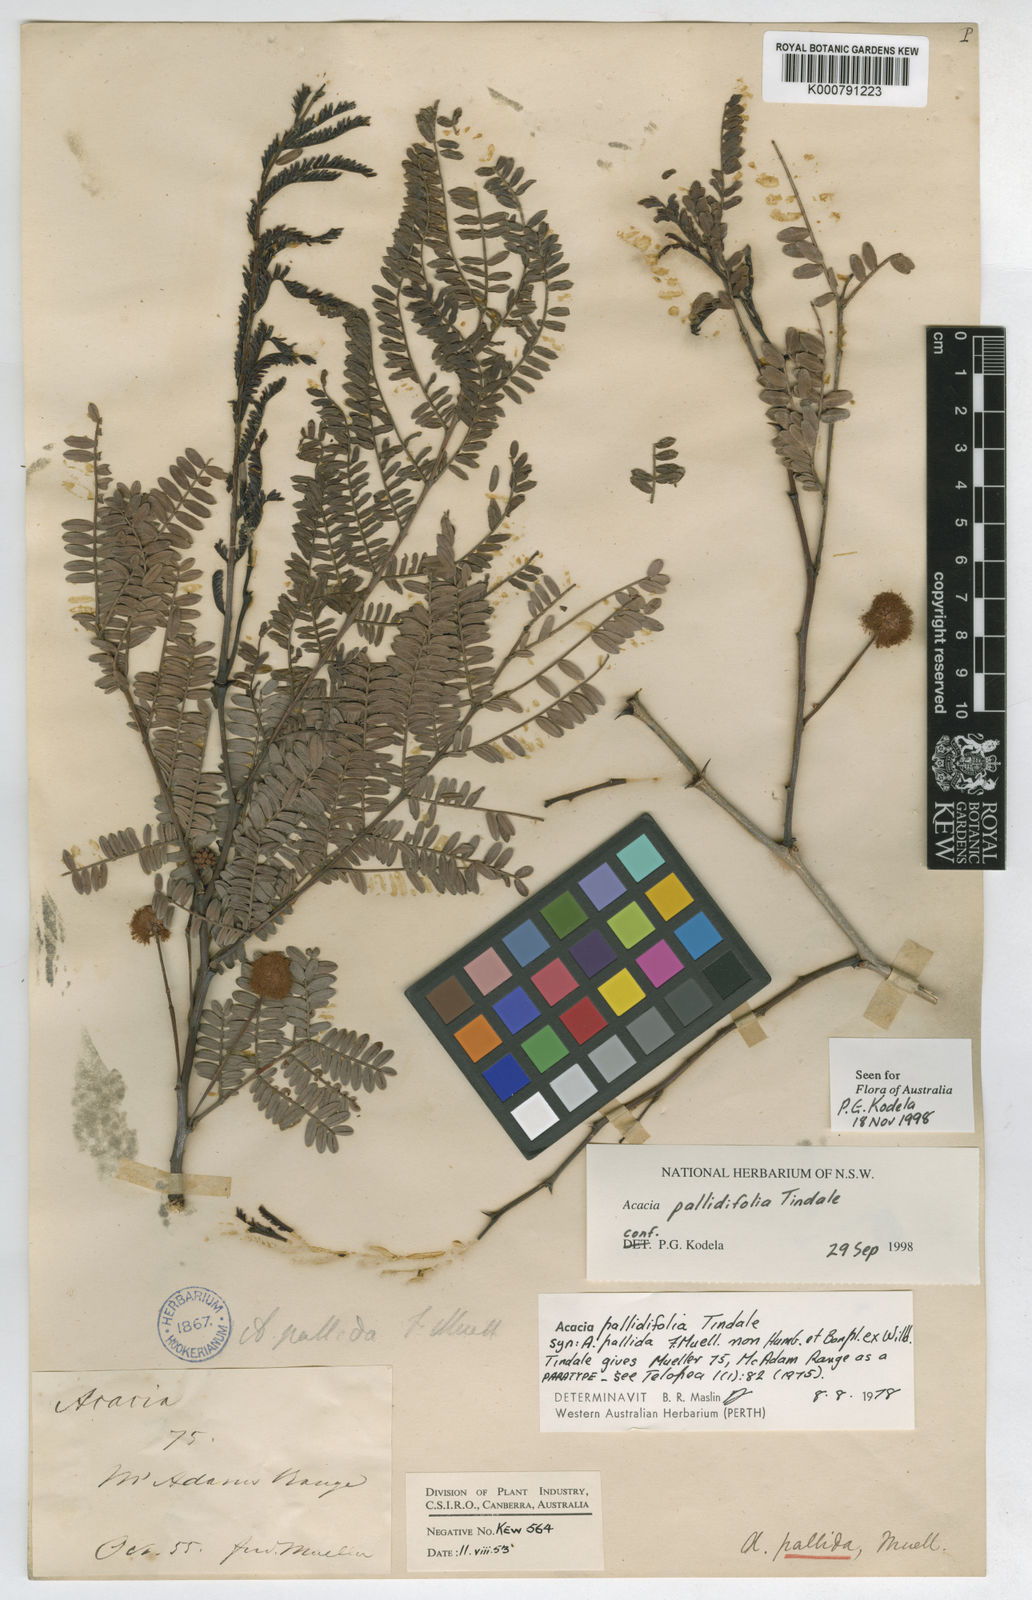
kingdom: Plantae
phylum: Tracheophyta
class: Magnoliopsida
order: Fabales
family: Fabaceae
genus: Vachellia
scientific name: Vachellia pallidifolia
